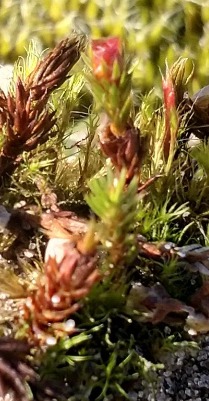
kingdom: Plantae
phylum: Bryophyta
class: Polytrichopsida
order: Polytrichales
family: Polytrichaceae
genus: Polytrichum
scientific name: Polytrichum piliferum
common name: Hårspidset jomfruhår
